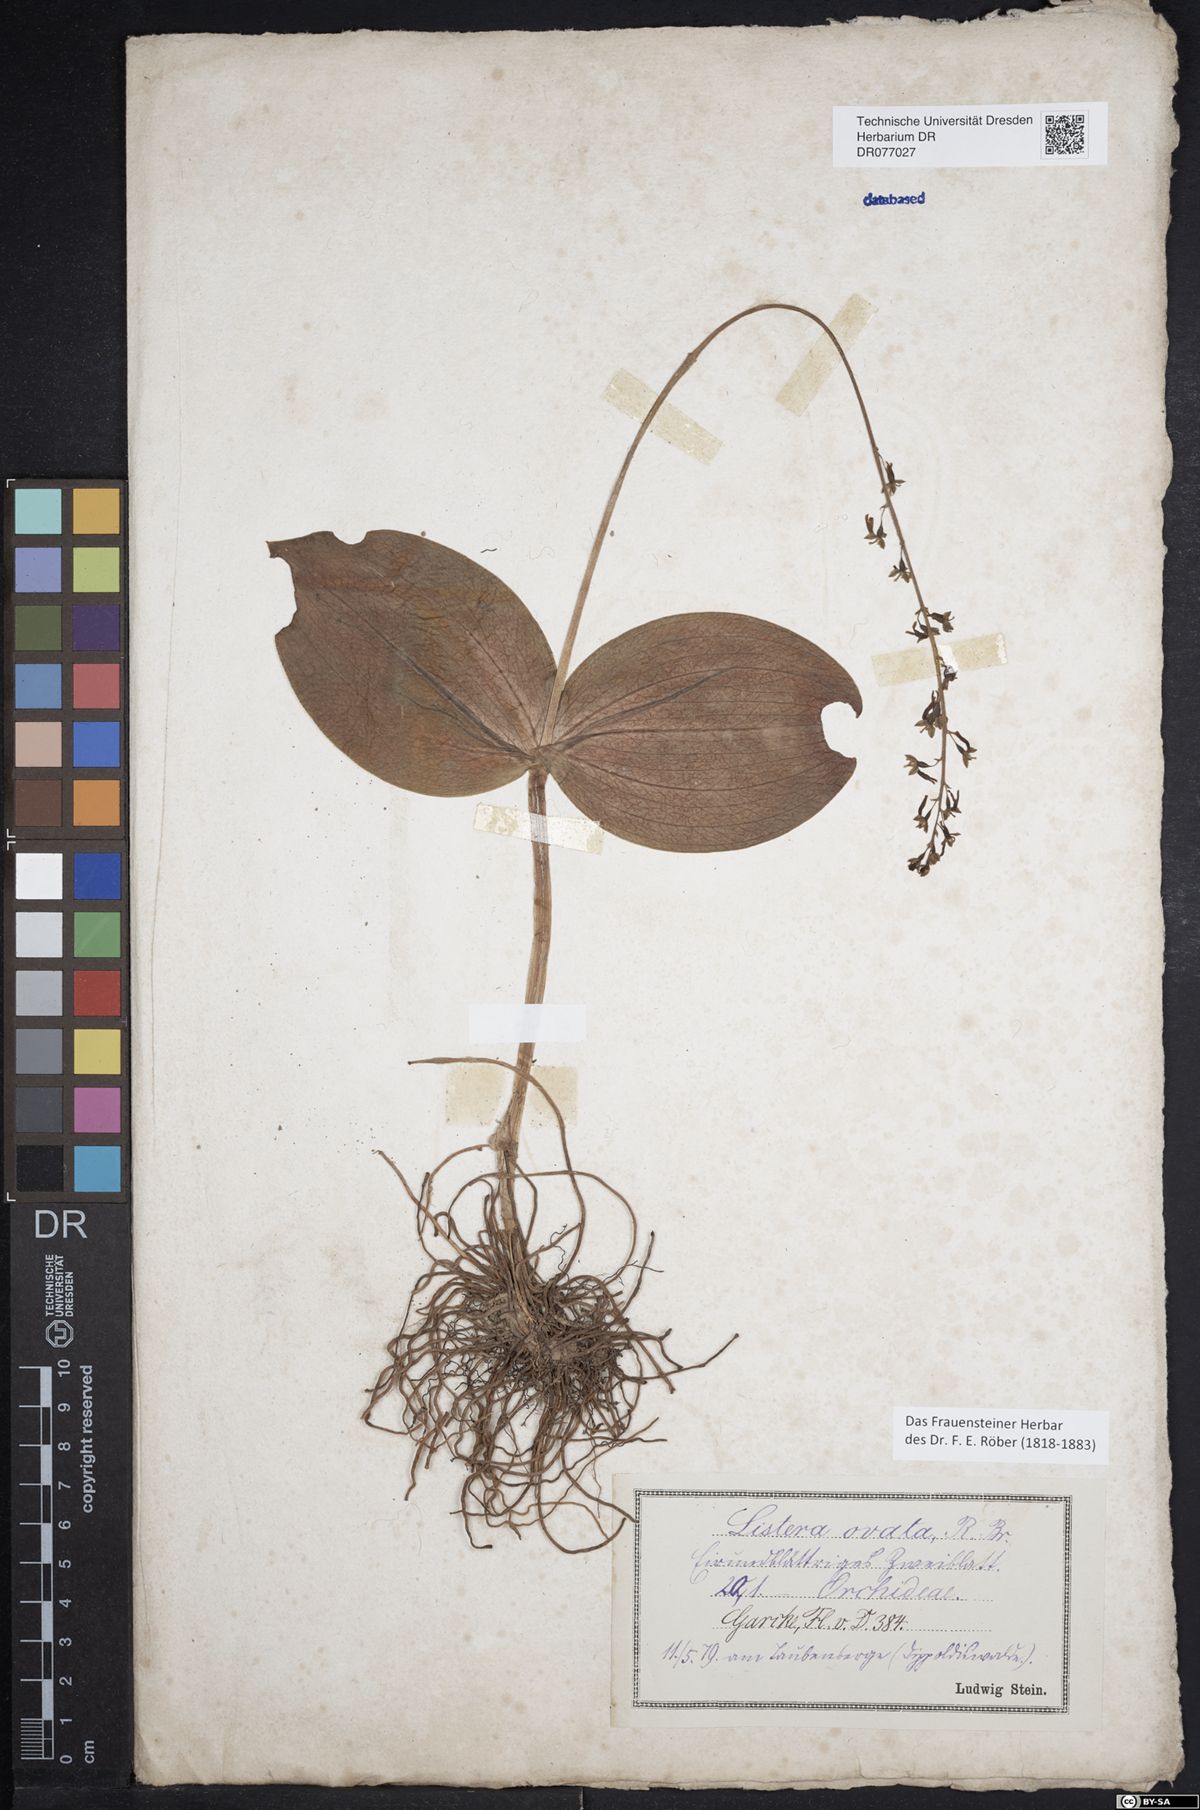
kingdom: Plantae
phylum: Tracheophyta
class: Liliopsida
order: Asparagales
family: Orchidaceae
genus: Neottia
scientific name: Neottia ovata
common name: Common twayblade
